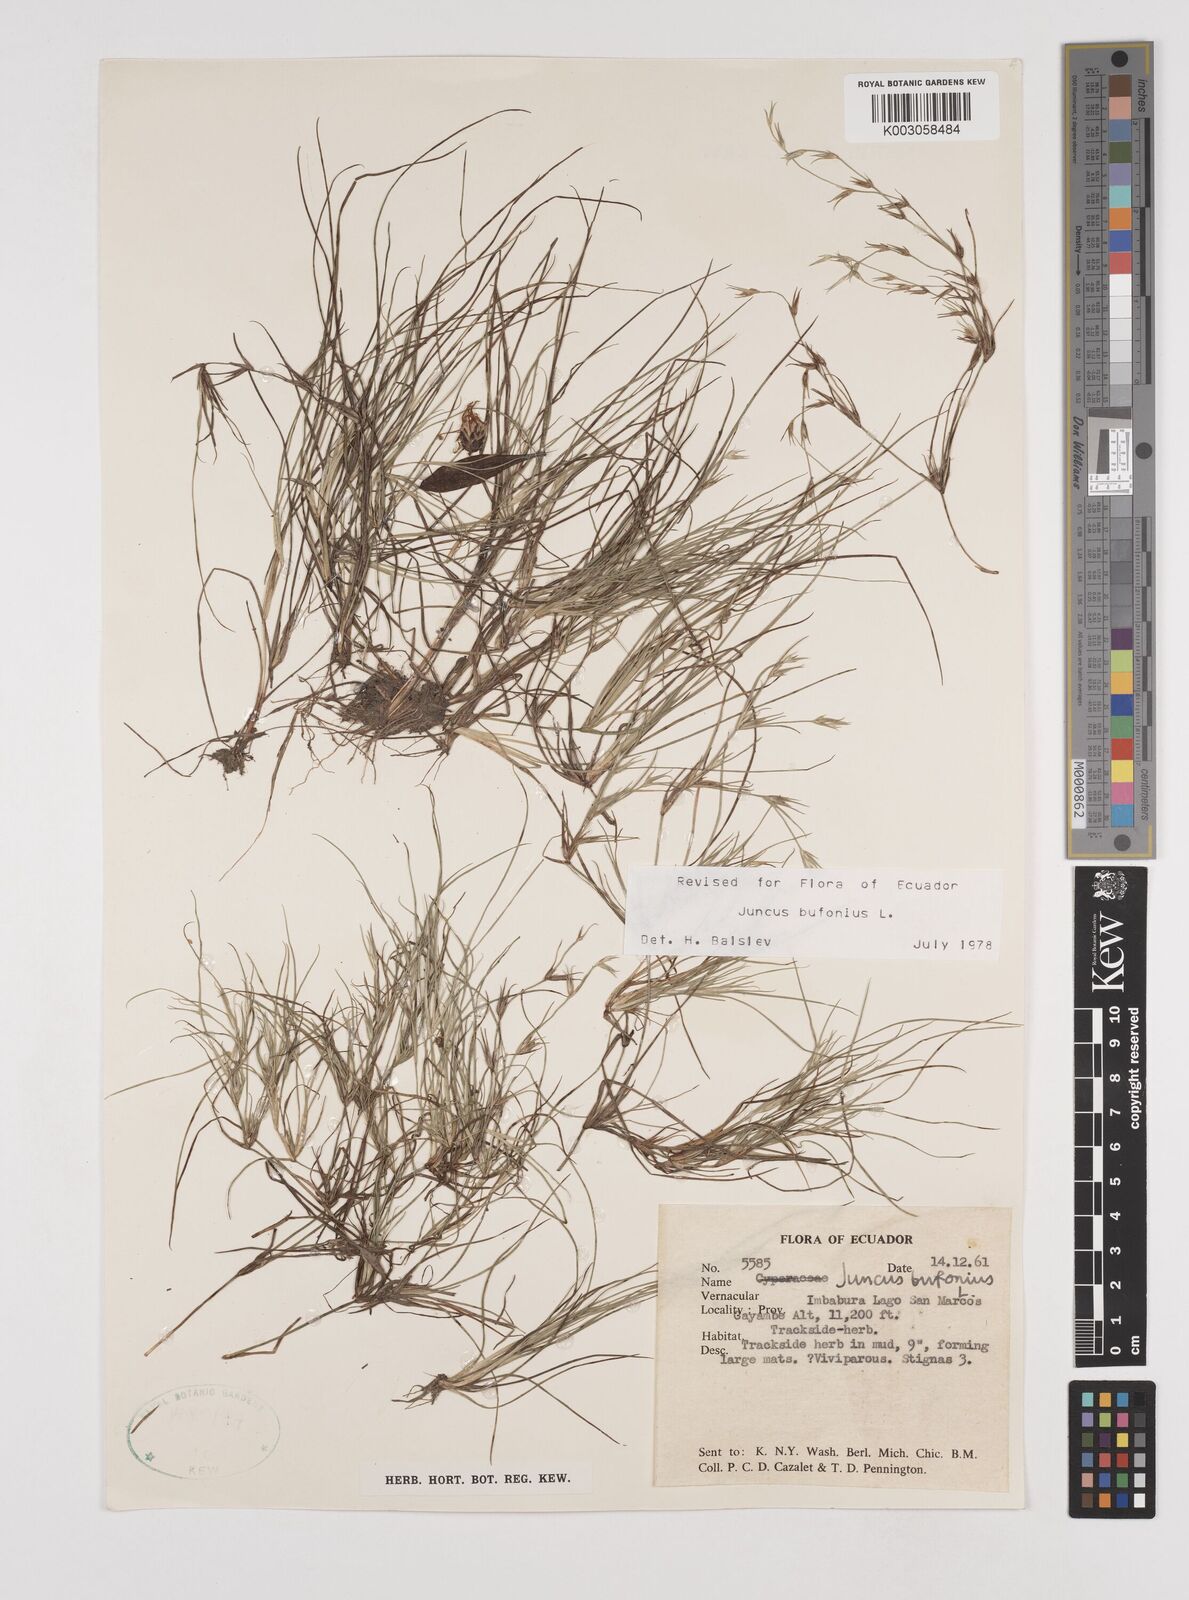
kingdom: Plantae
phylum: Tracheophyta
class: Liliopsida
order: Poales
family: Juncaceae
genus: Juncus
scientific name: Juncus bufonius
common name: Toad rush
